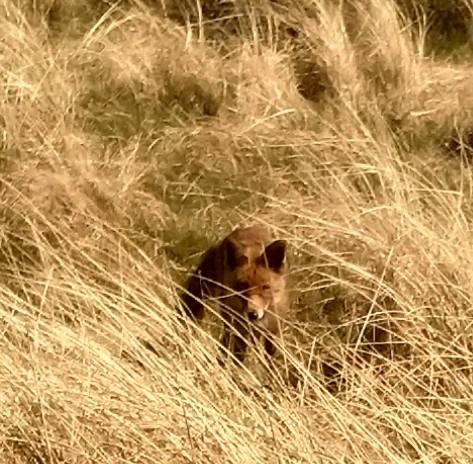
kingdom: Animalia
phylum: Chordata
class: Mammalia
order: Carnivora
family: Canidae
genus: Vulpes
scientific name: Vulpes vulpes
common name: Ræv
